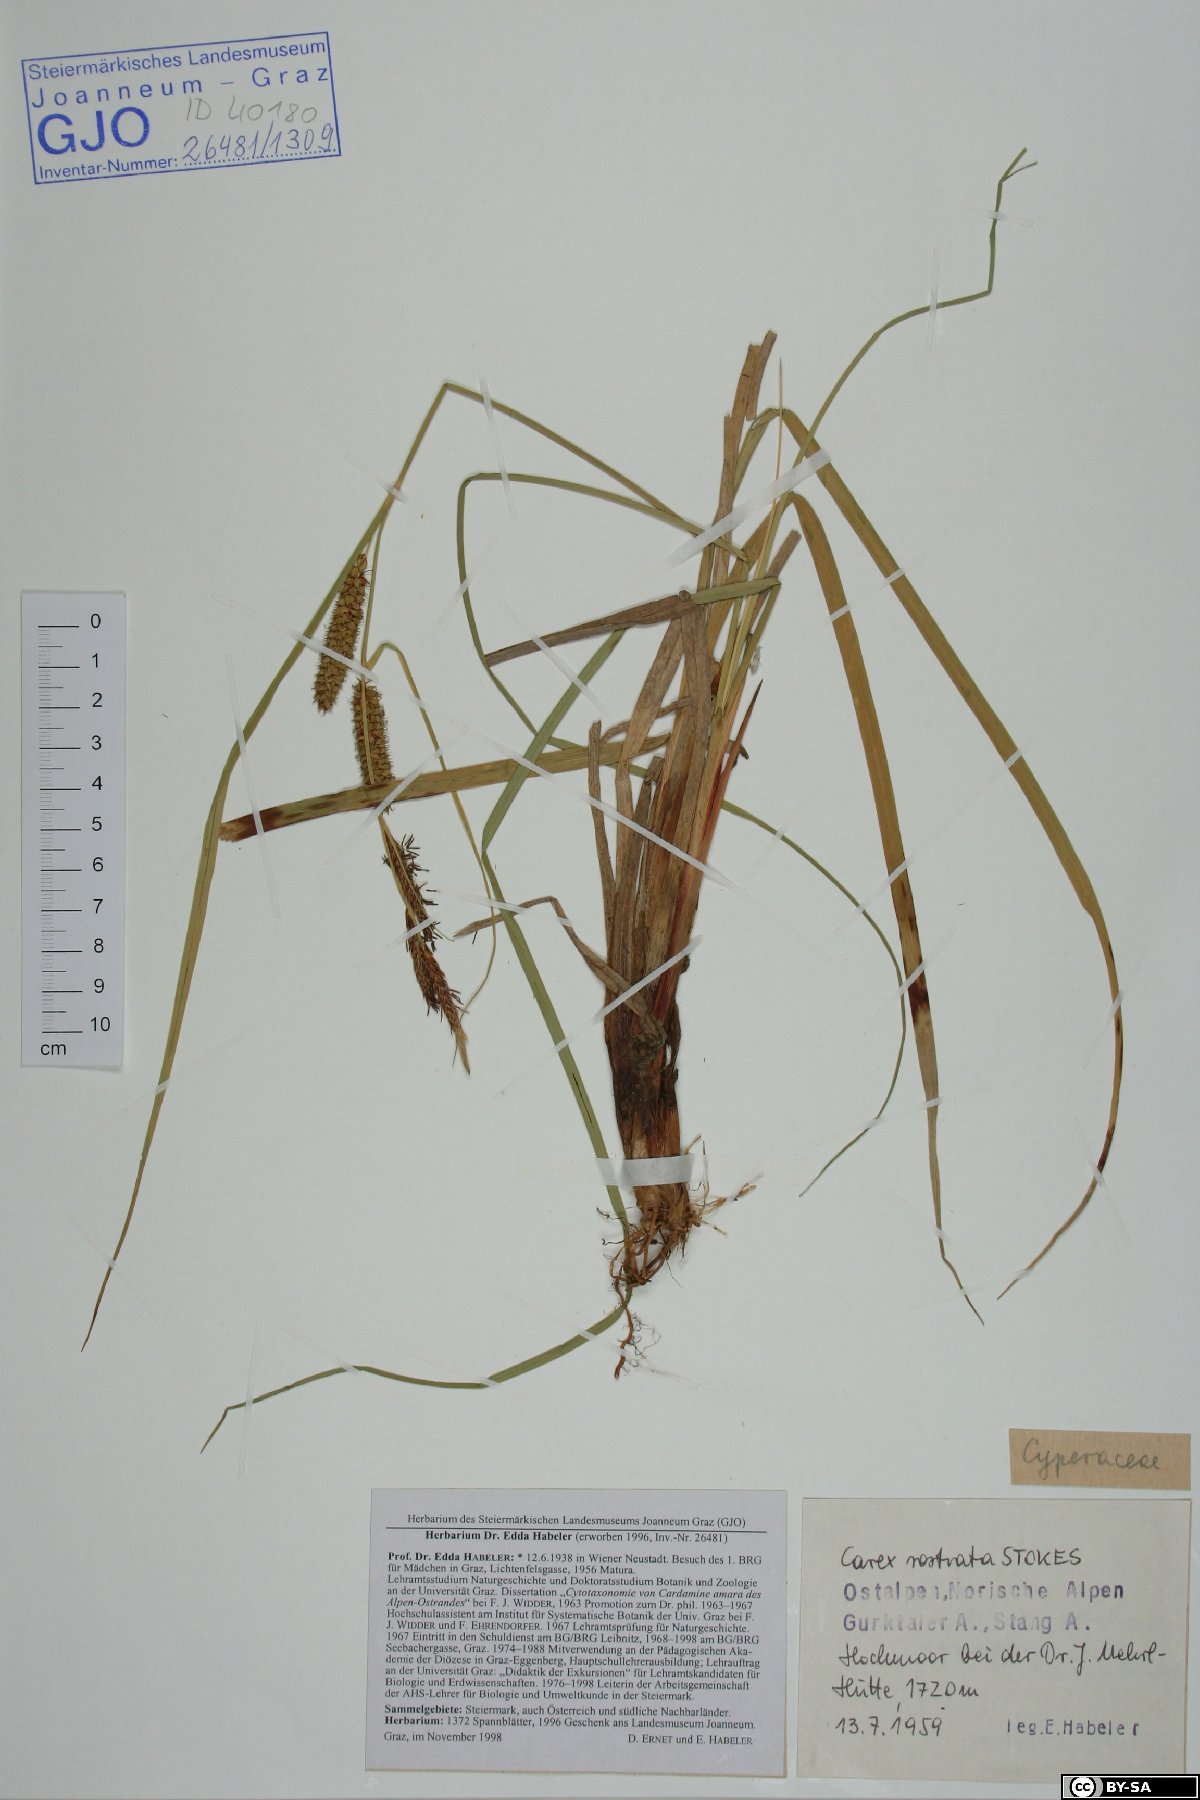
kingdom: Plantae
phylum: Tracheophyta
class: Liliopsida
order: Poales
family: Cyperaceae
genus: Carex
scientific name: Carex rostrata
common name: Bottle sedge
